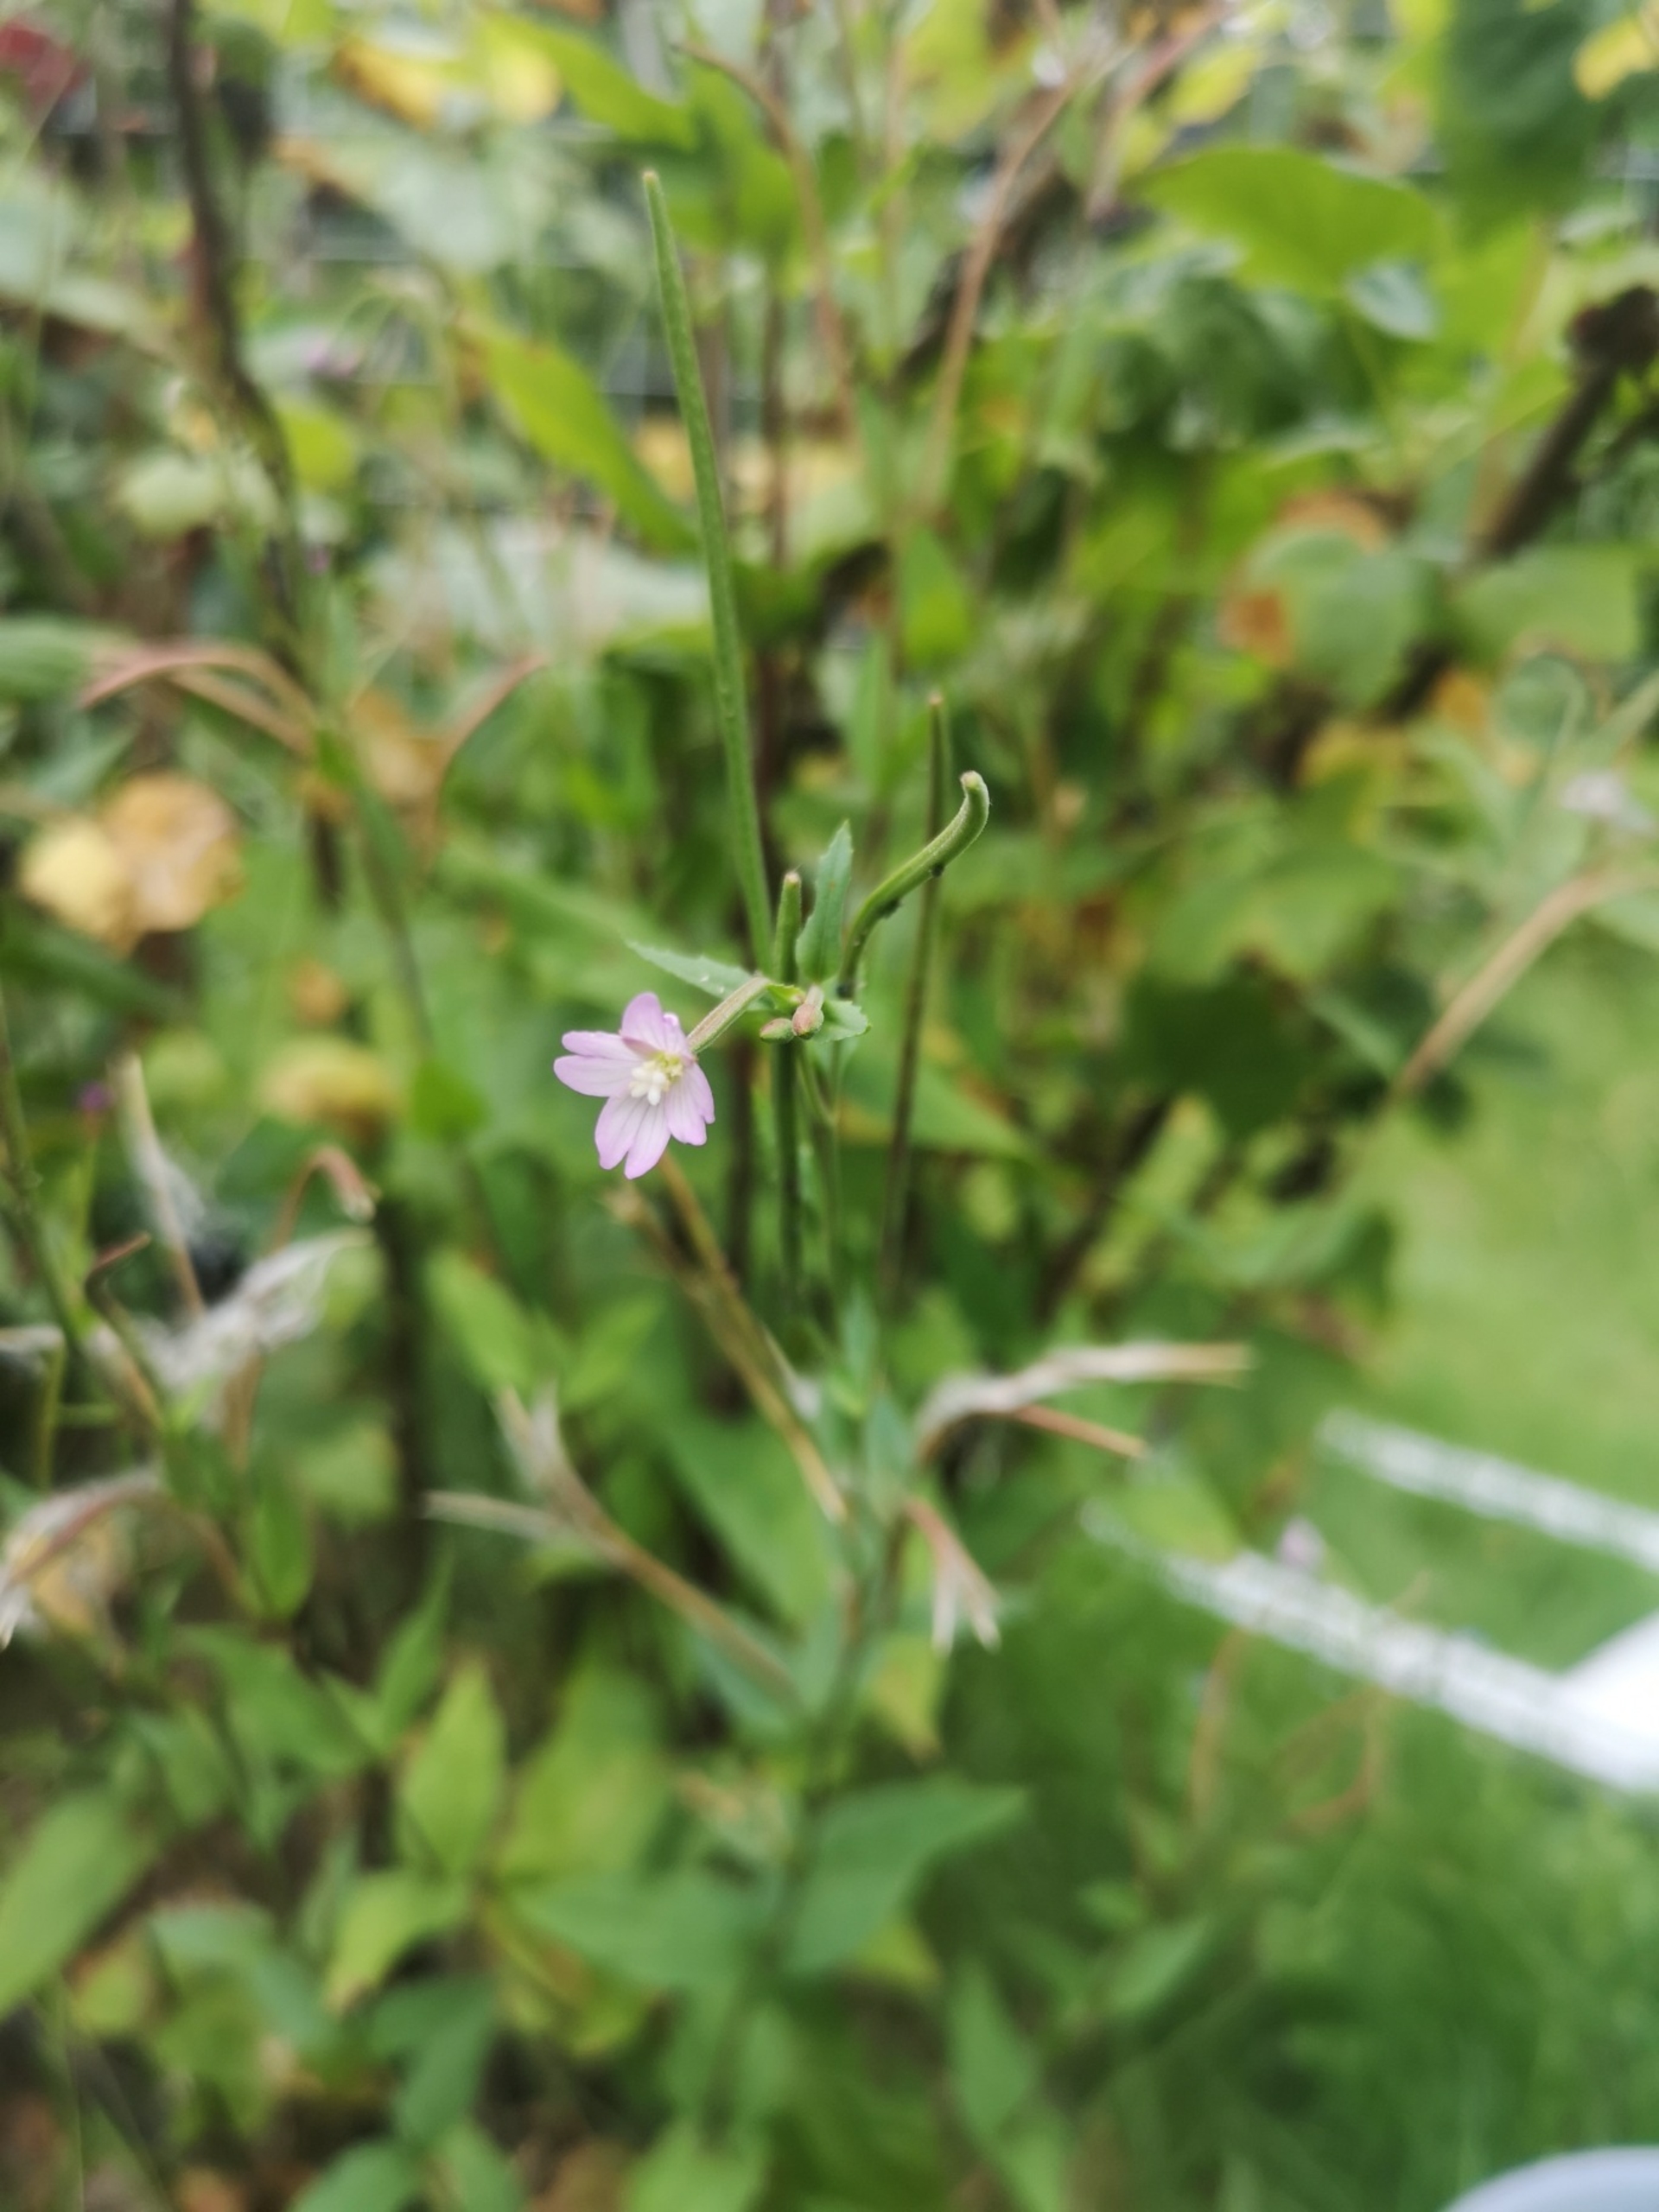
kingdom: Plantae
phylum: Tracheophyta
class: Magnoliopsida
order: Myrtales
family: Onagraceae
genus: Epilobium
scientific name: Epilobium montanum
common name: Glat dueurt
